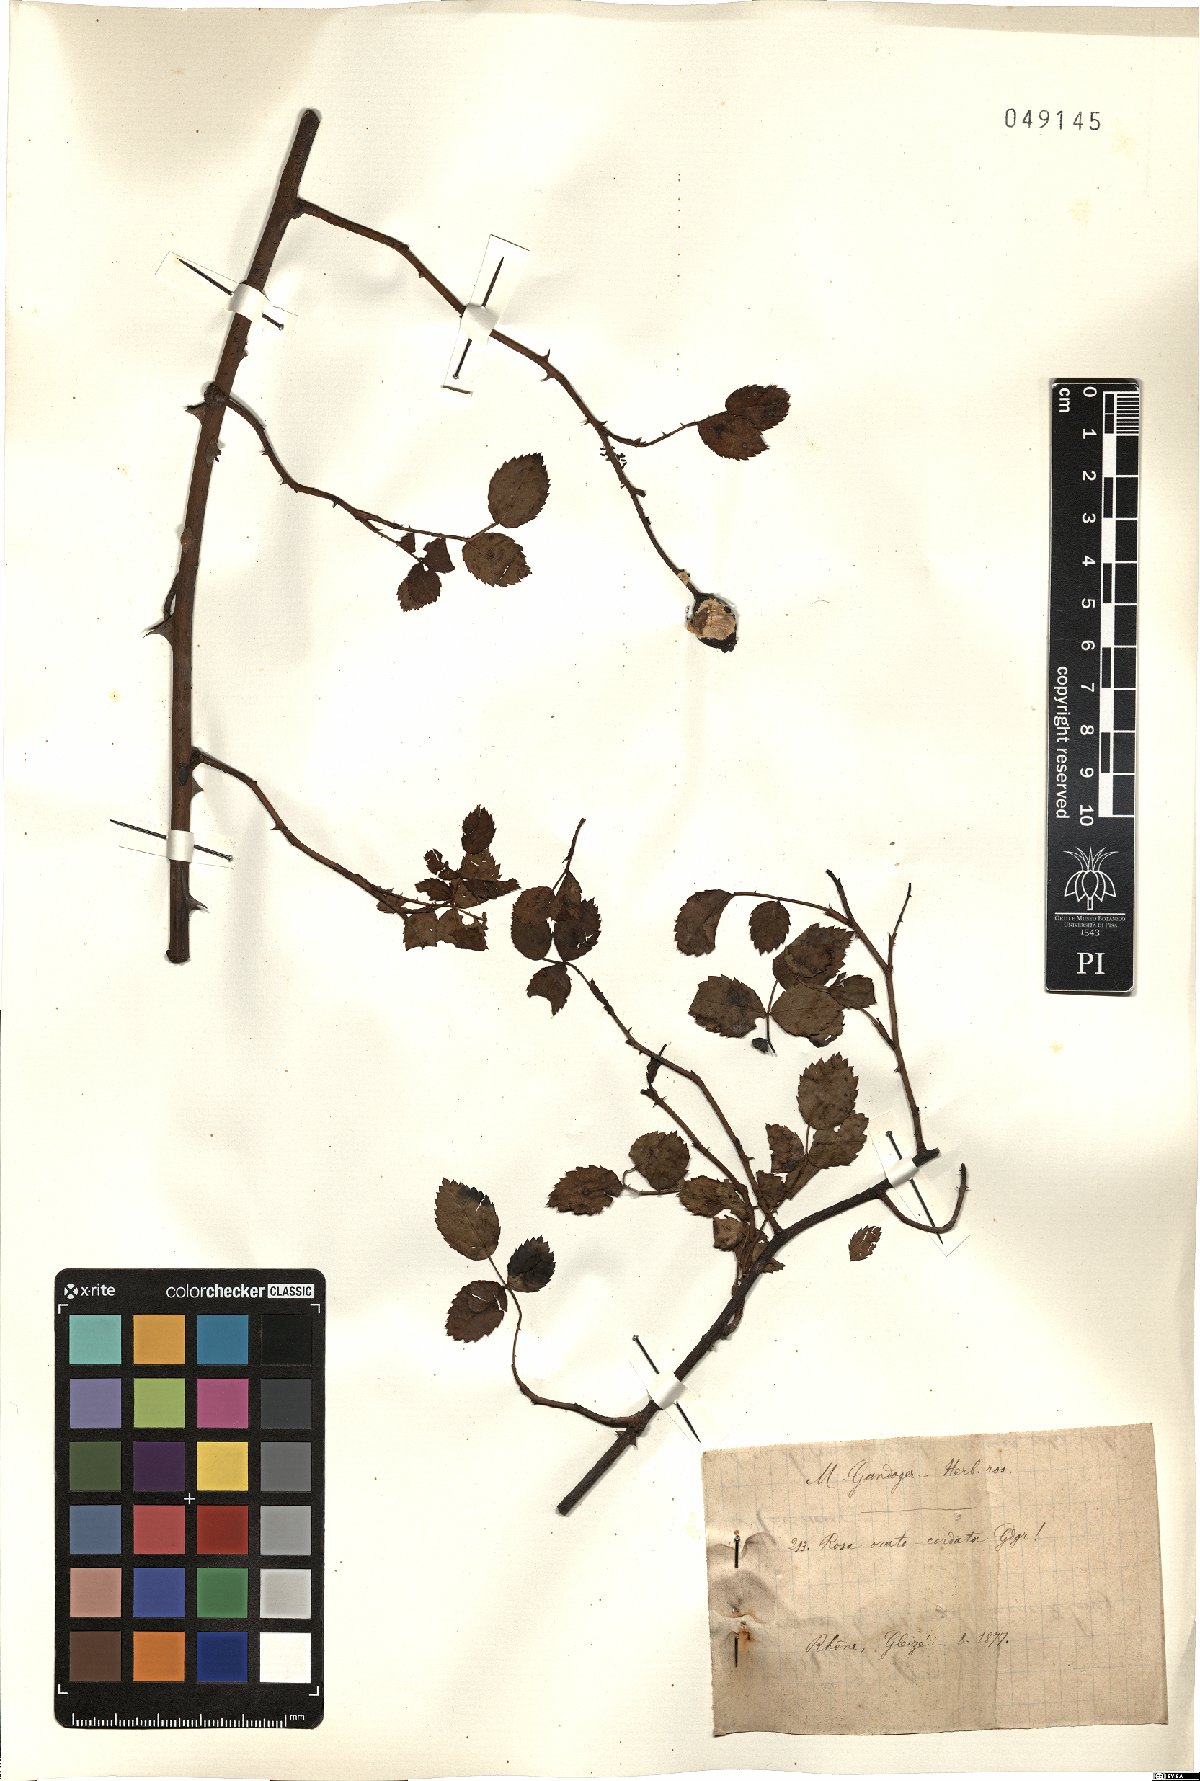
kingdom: Plantae
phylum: Tracheophyta
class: Magnoliopsida
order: Rosales
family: Rosaceae
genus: Rosa
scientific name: Rosa arvensis
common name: Field rose
